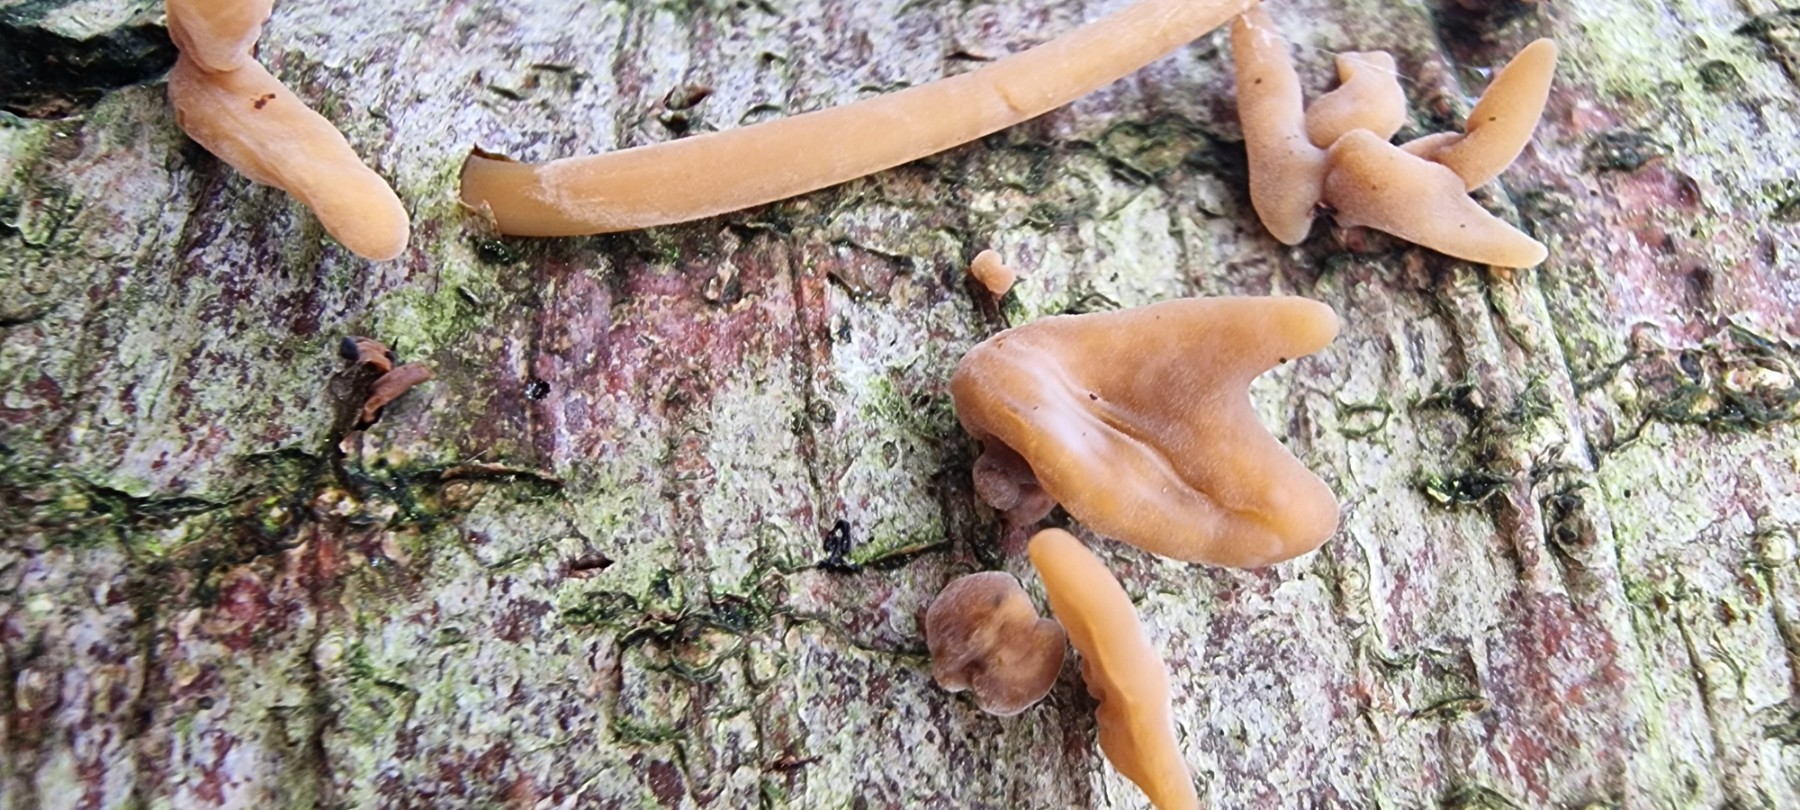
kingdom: Fungi
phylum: Basidiomycota
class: Agaricomycetes
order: Agaricales
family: Typhulaceae
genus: Typhula
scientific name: Typhula contorta
